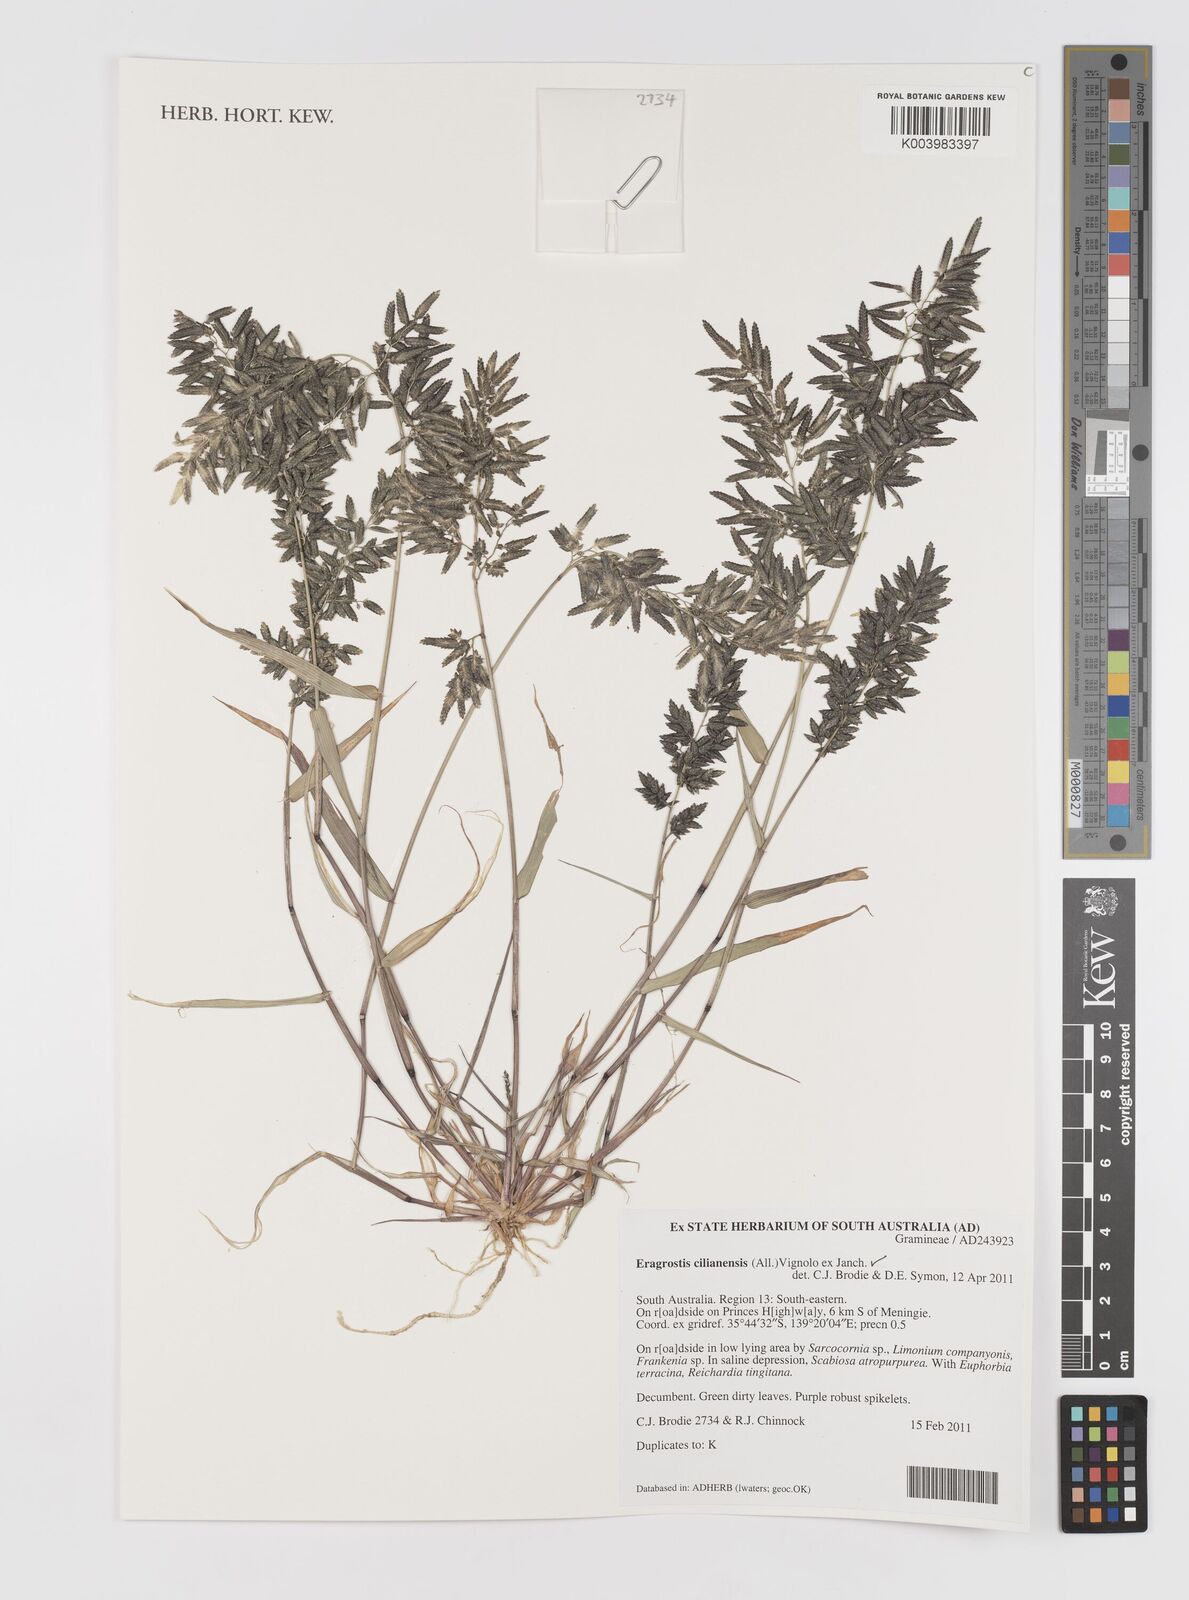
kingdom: Plantae
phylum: Tracheophyta
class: Liliopsida
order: Poales
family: Poaceae
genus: Eragrostis
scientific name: Eragrostis cilianensis
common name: Stinkgrass
